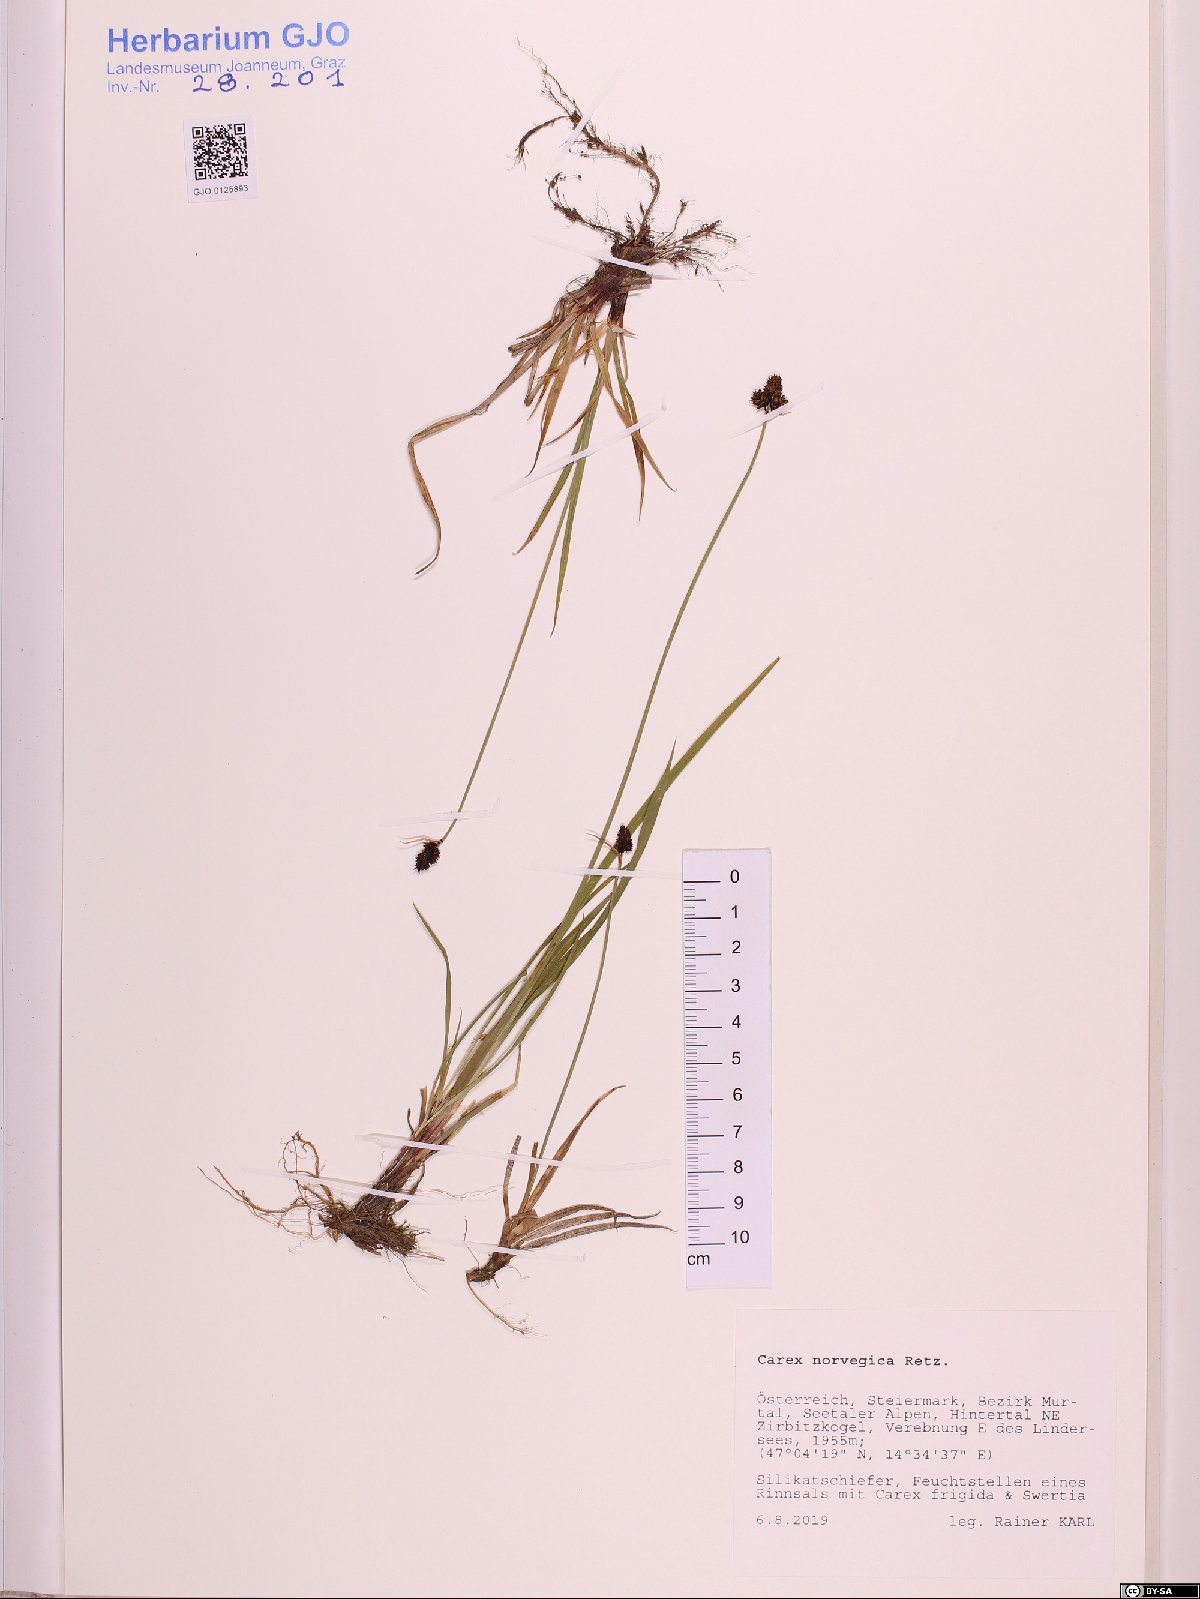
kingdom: Plantae
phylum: Tracheophyta
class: Liliopsida
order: Poales
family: Cyperaceae
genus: Carex
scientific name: Carex norvegica
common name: Close-headed alpine-sedge
